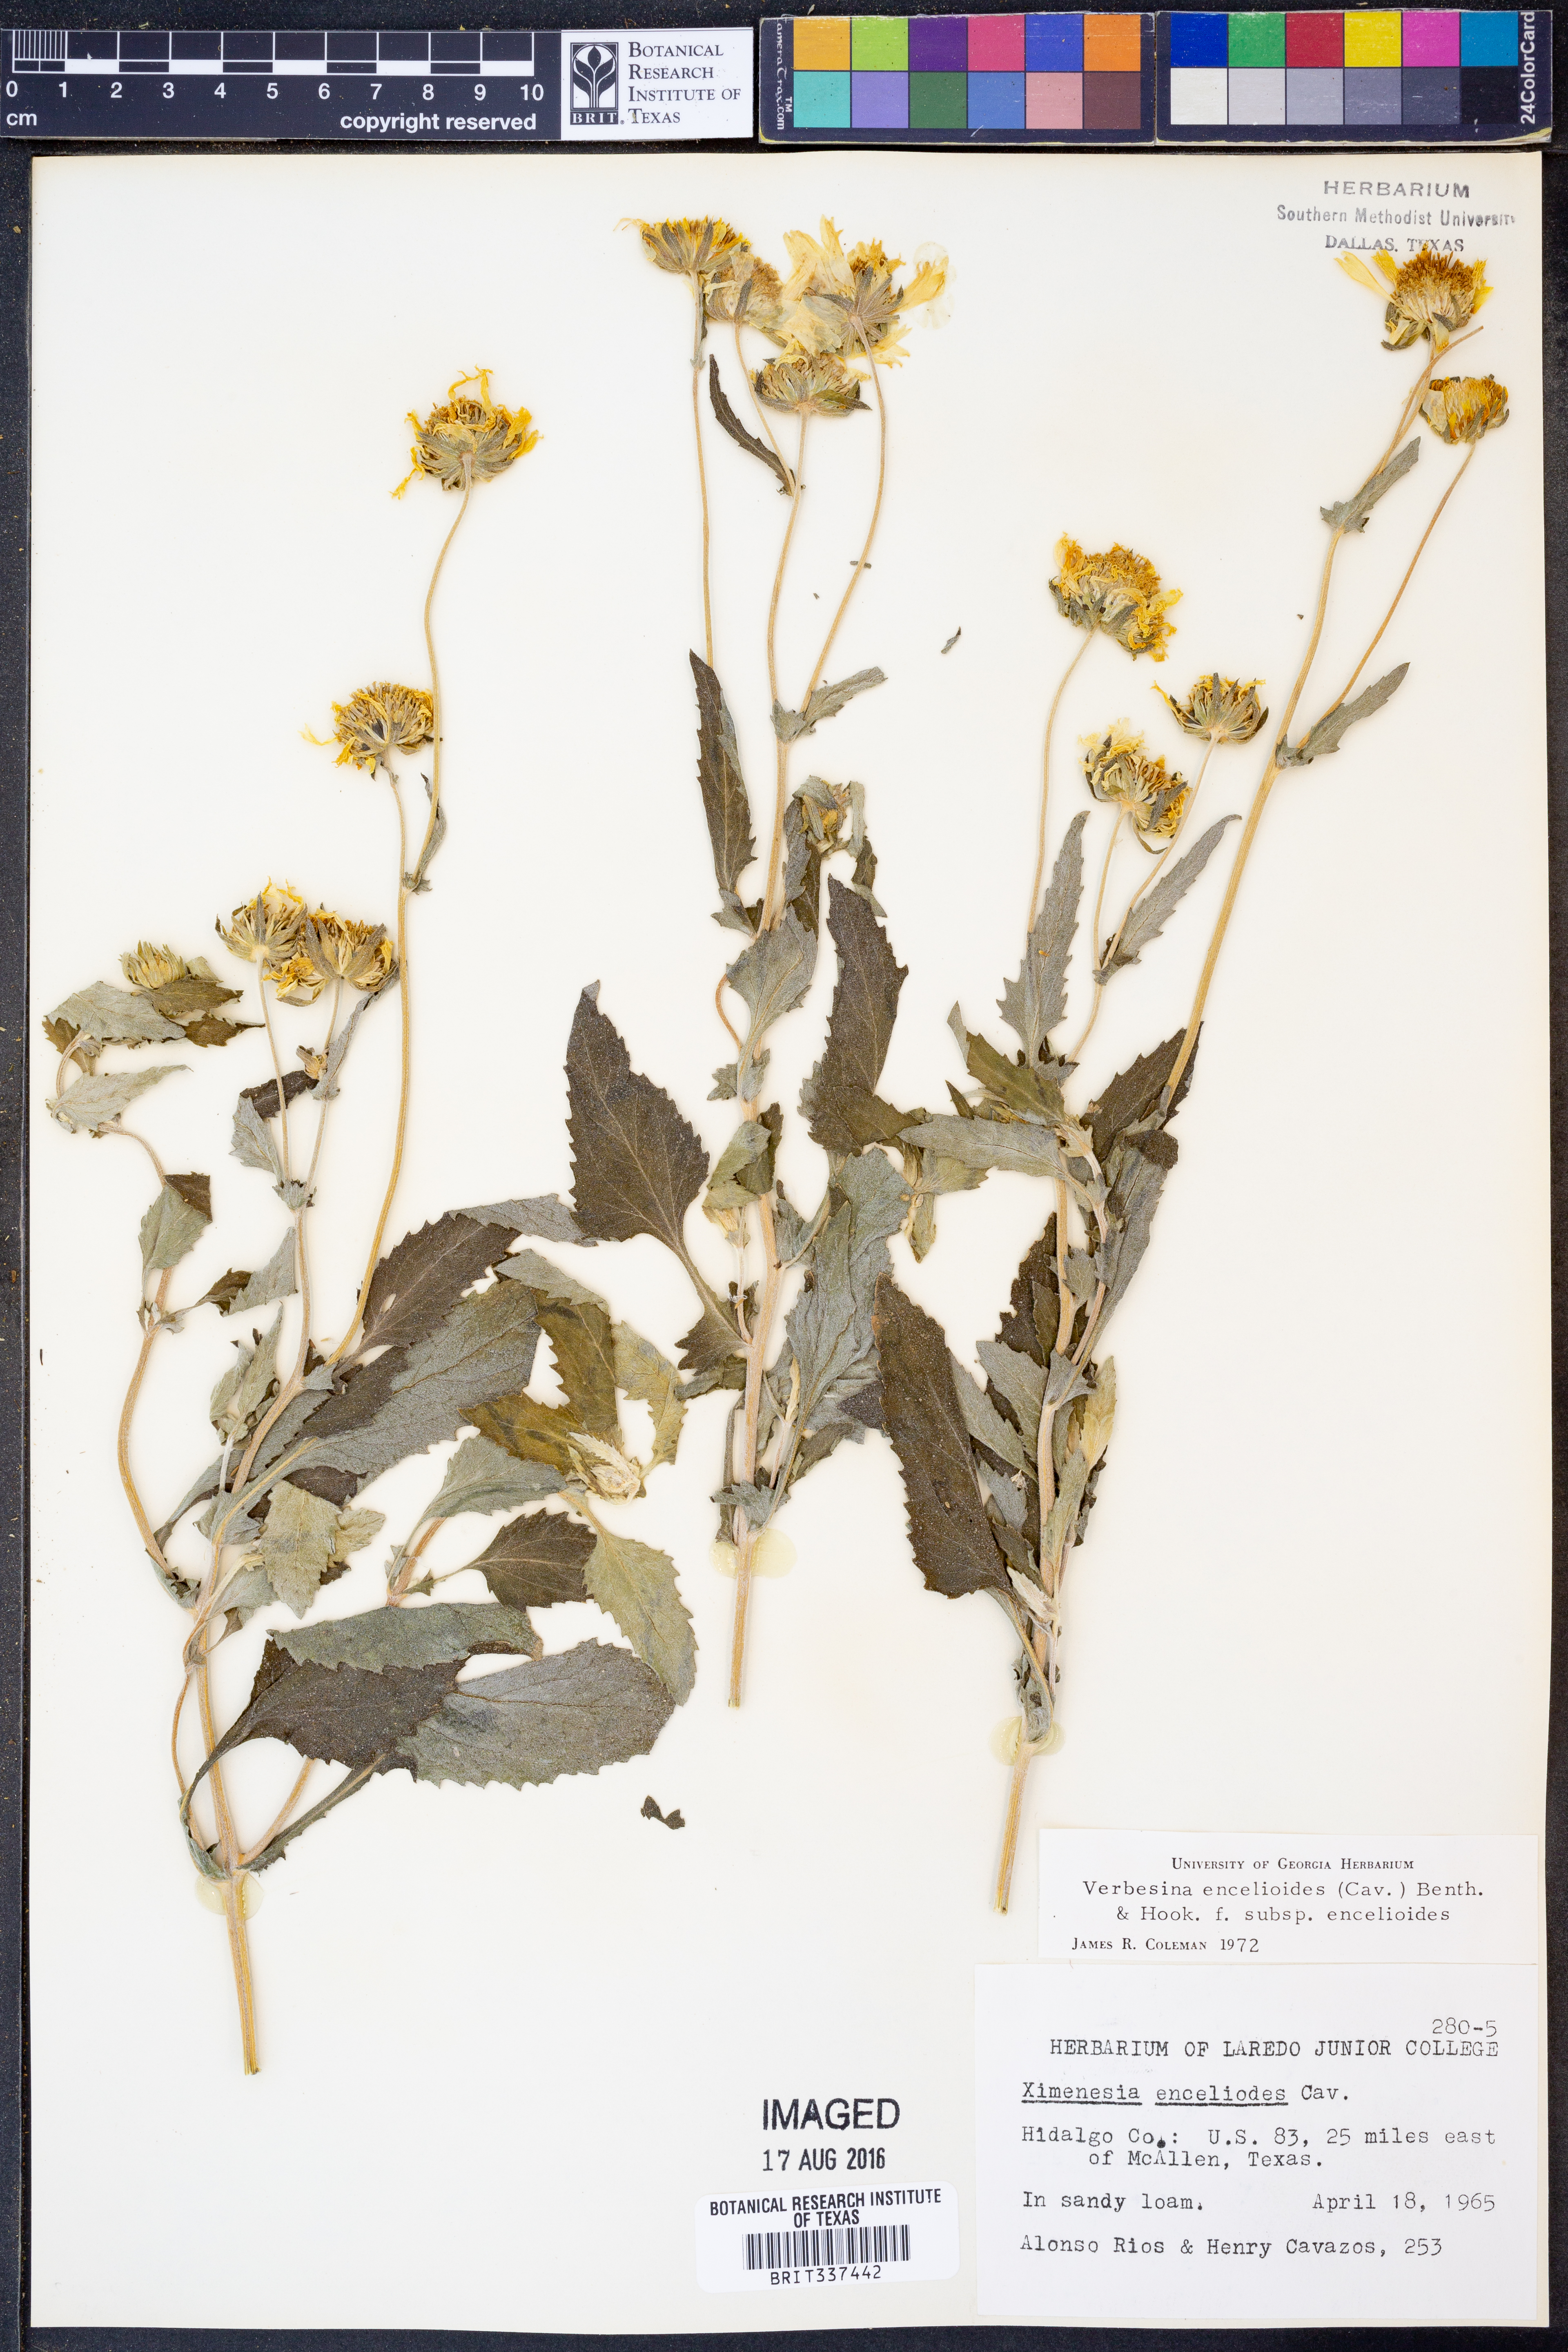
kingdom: Plantae
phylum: Tracheophyta
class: Magnoliopsida
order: Asterales
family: Asteraceae
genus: Verbesina
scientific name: Verbesina encelioides
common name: Golden crownbeard
